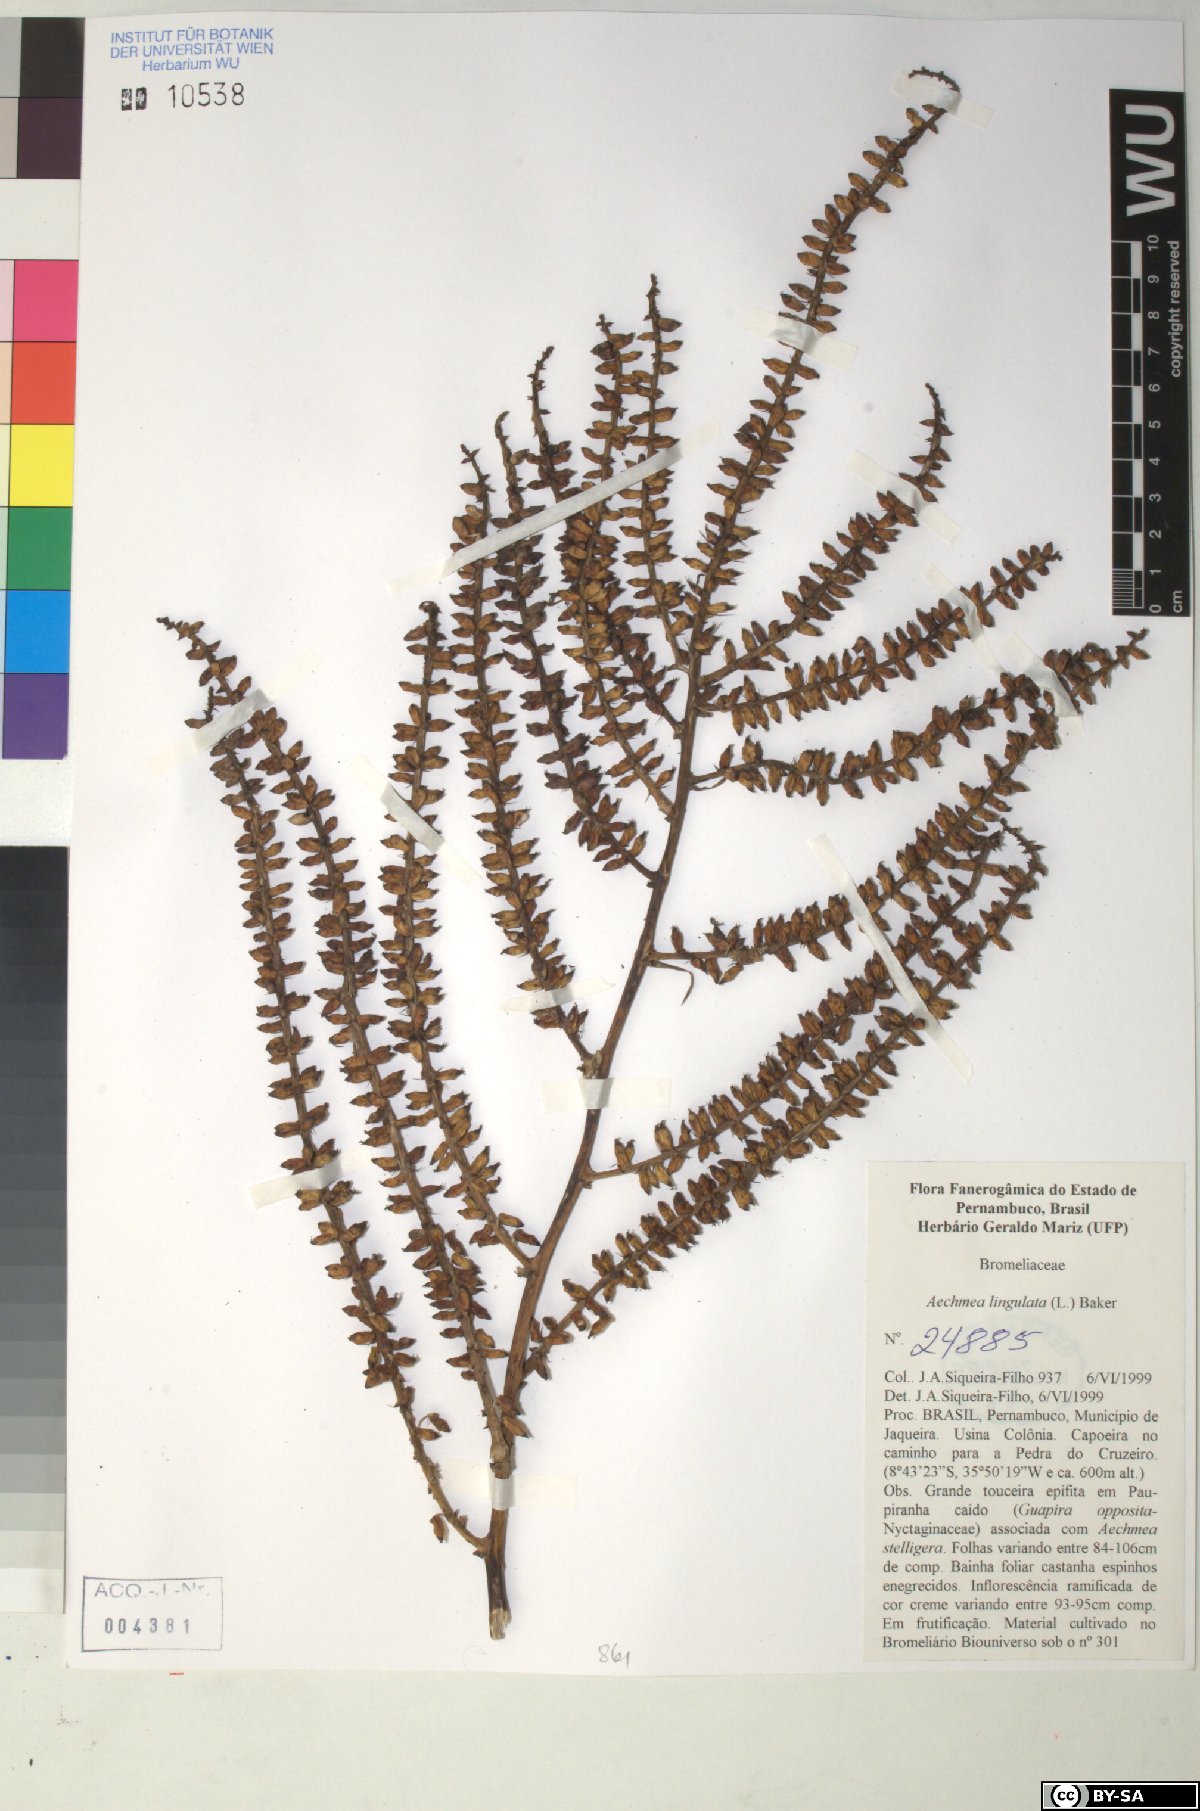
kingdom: Plantae
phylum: Tracheophyta
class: Liliopsida
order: Poales
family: Bromeliaceae
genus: Wittmackia
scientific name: Wittmackia lingulata
